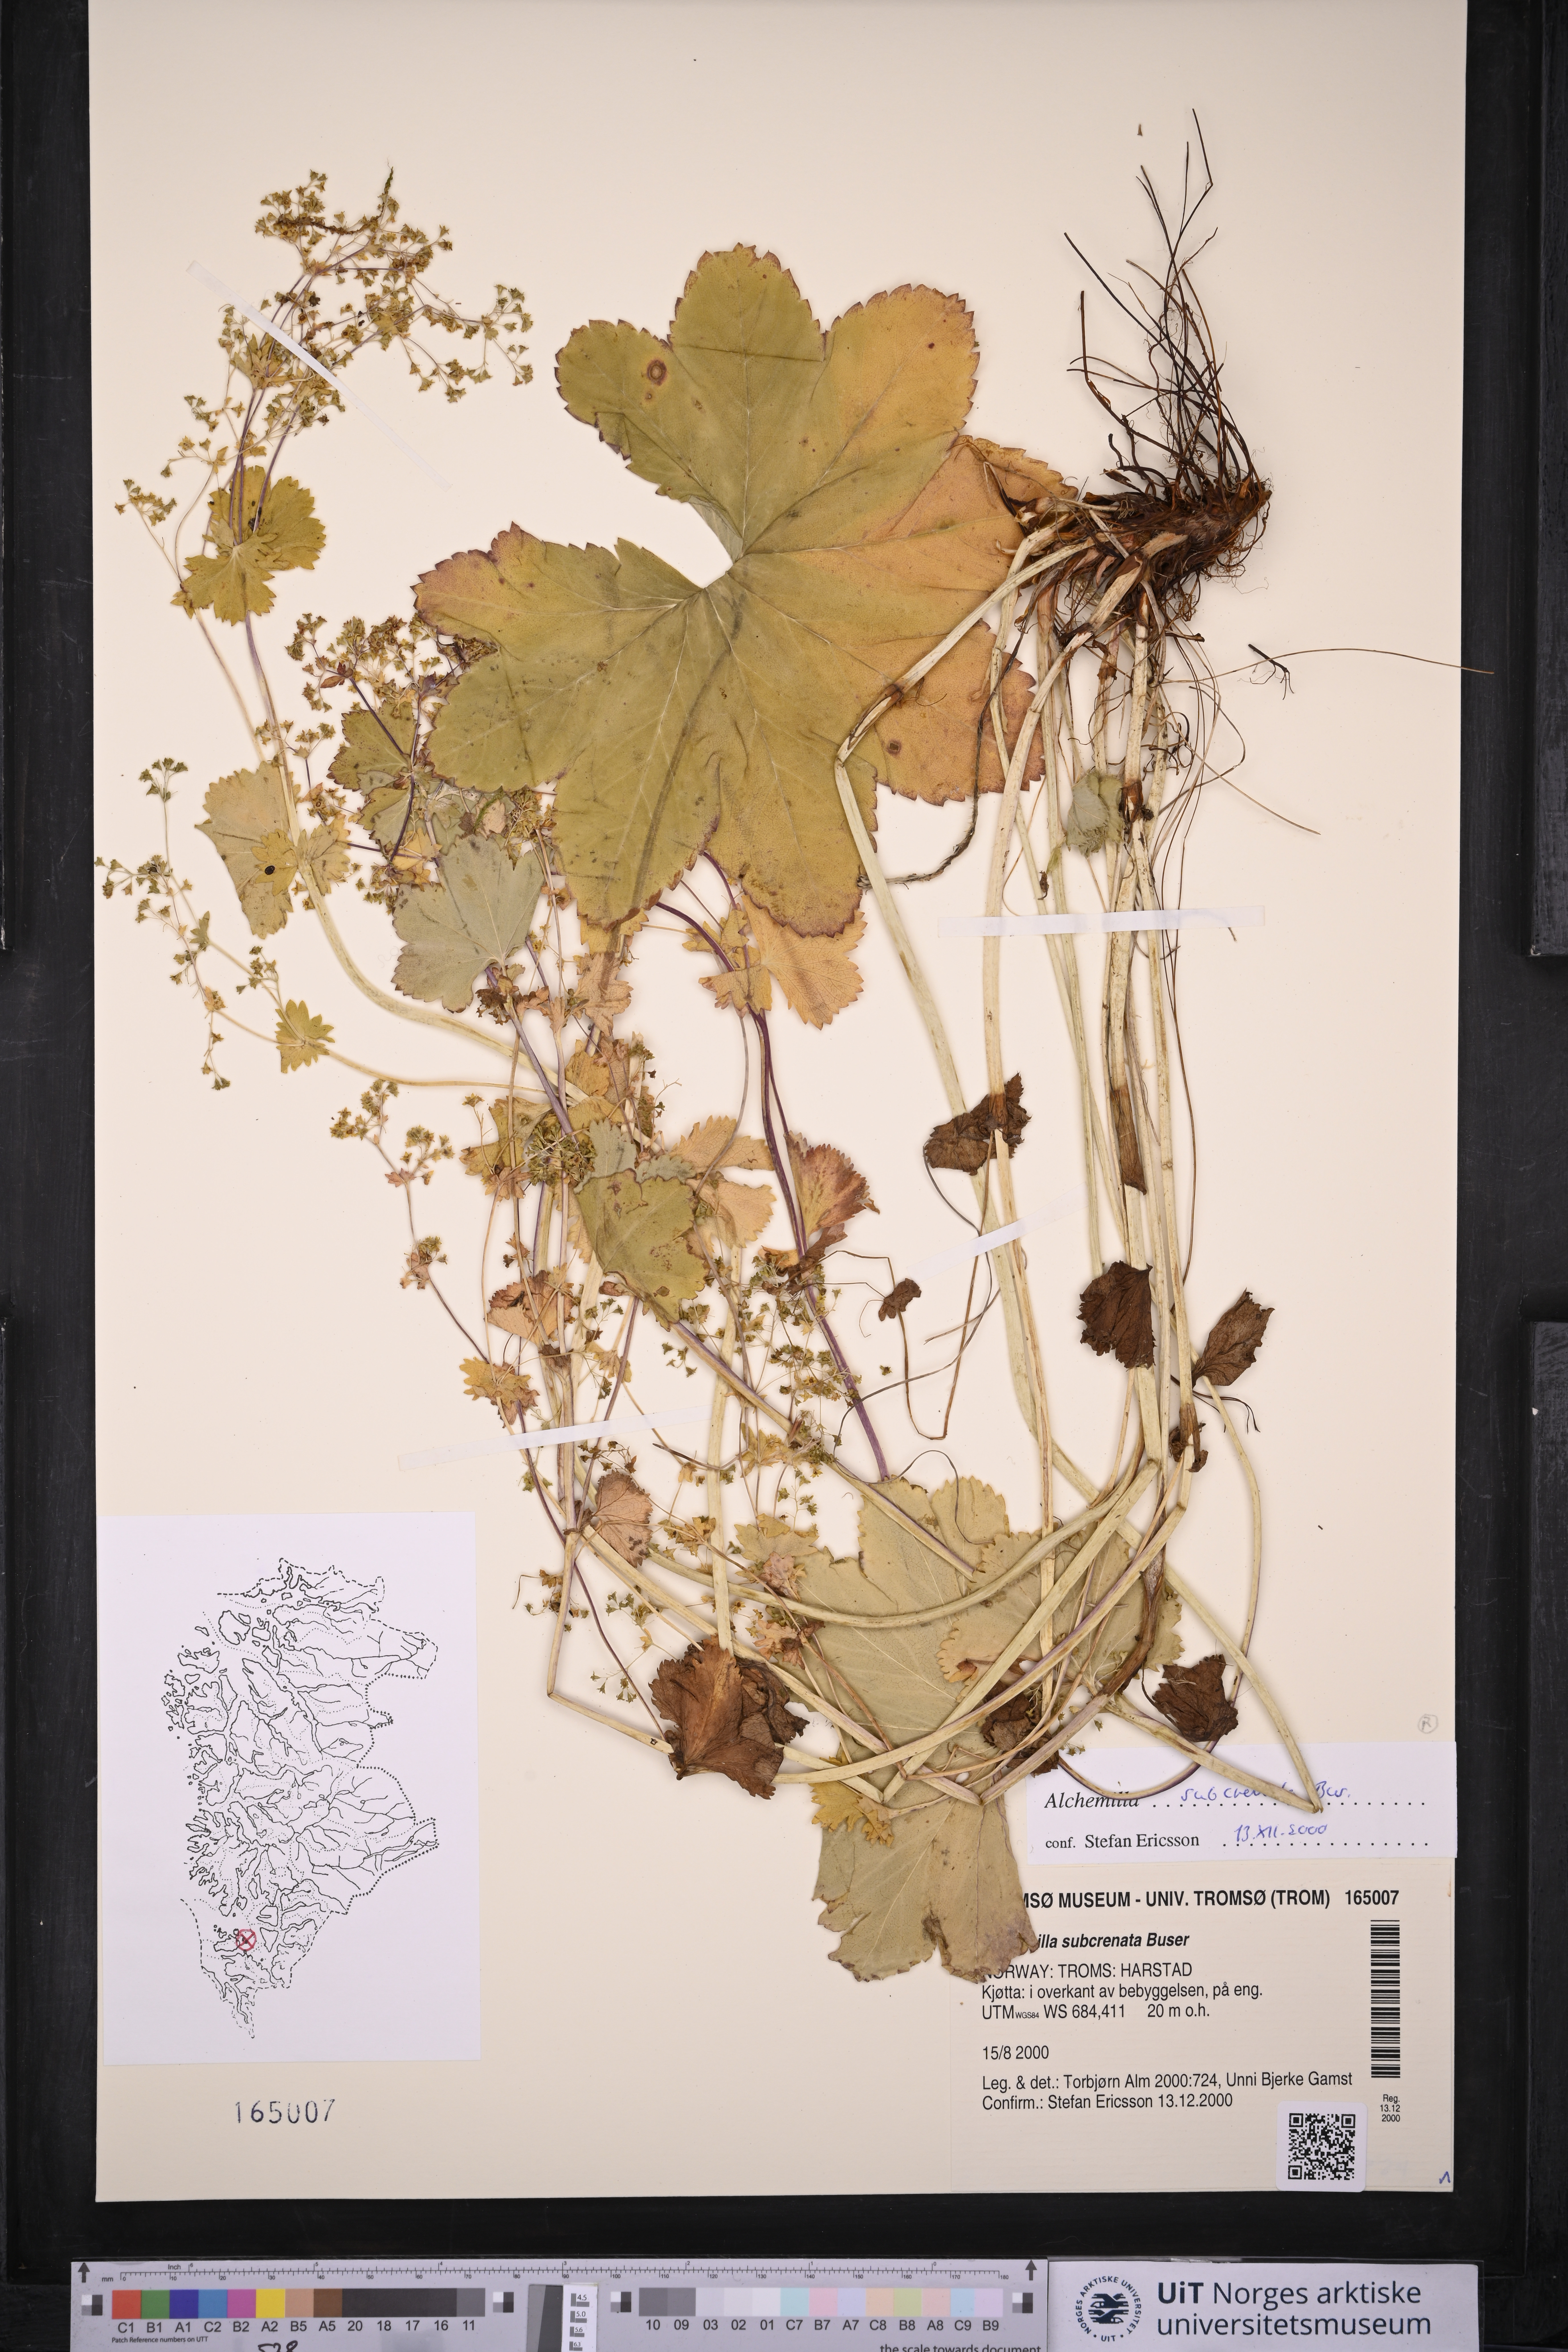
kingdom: Plantae
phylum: Tracheophyta
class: Magnoliopsida
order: Rosales
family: Rosaceae
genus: Alchemilla
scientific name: Alchemilla subcrenata
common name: Broadtooth lady's mantle
